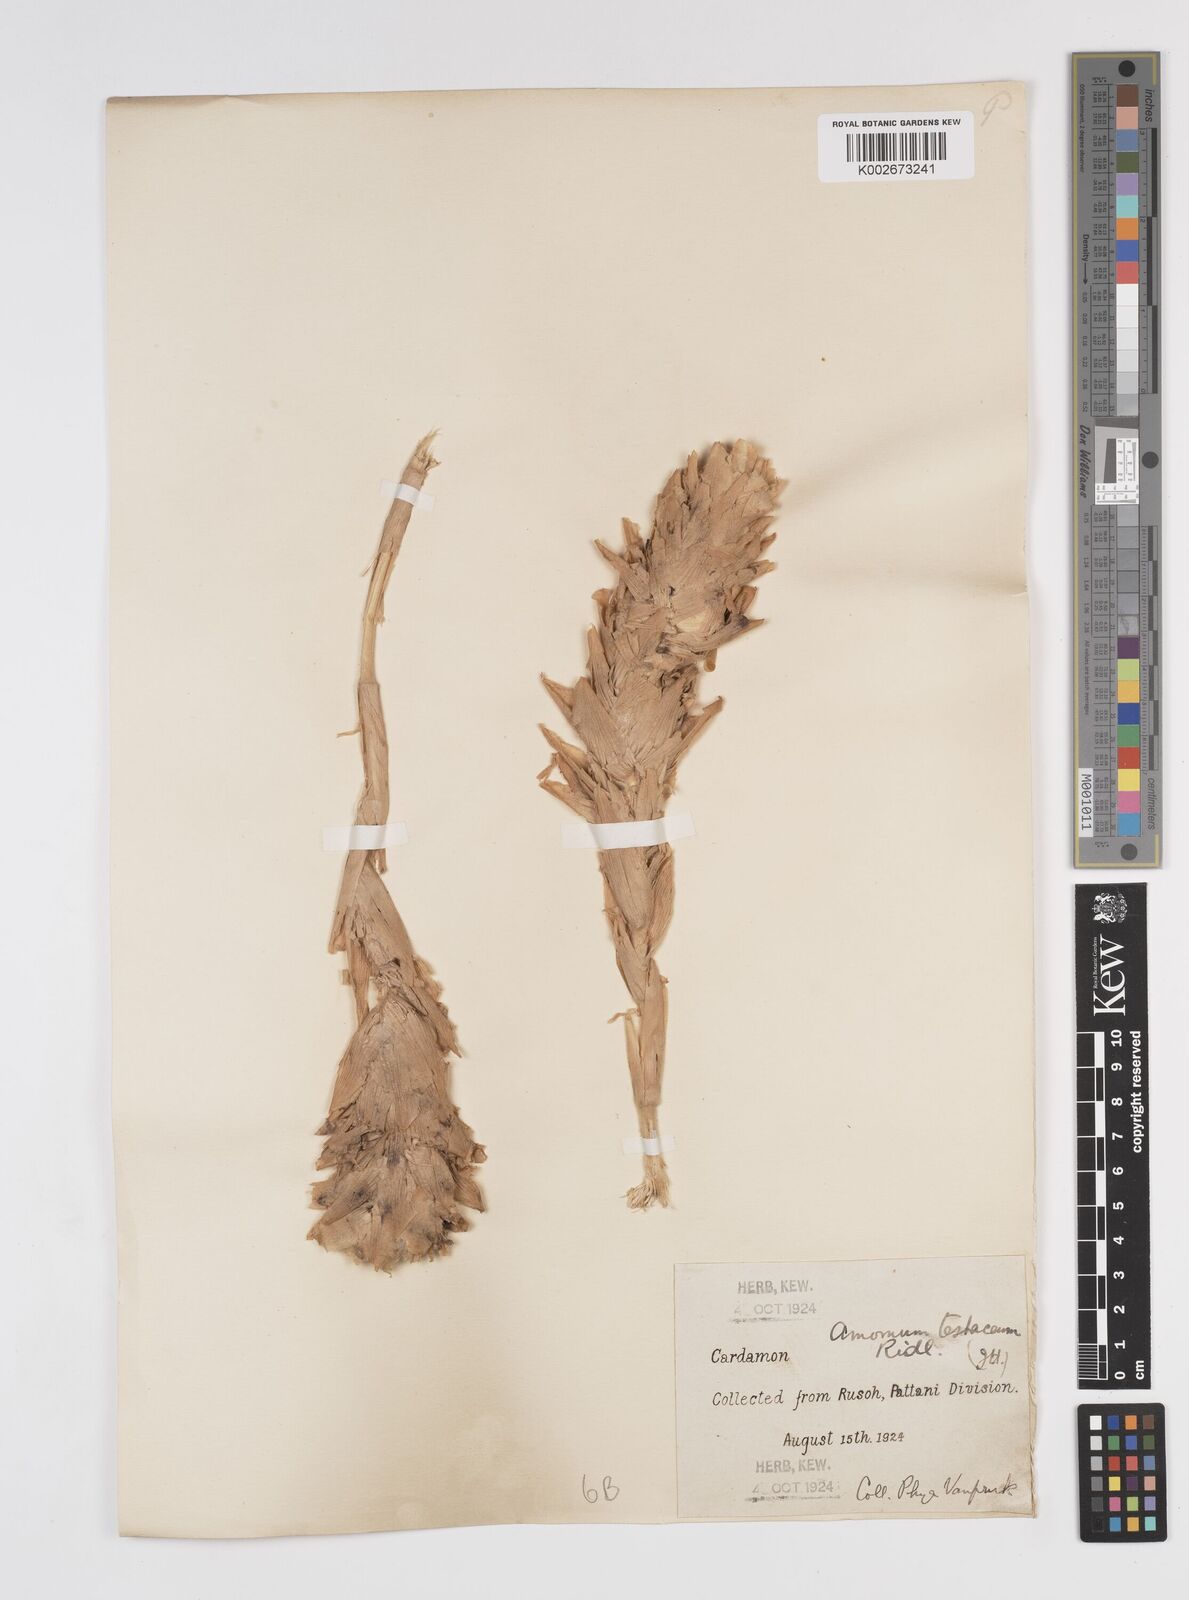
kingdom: Plantae
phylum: Tracheophyta
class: Liliopsida
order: Zingiberales
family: Zingiberaceae
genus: Wurfbainia
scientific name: Wurfbainia testacea
